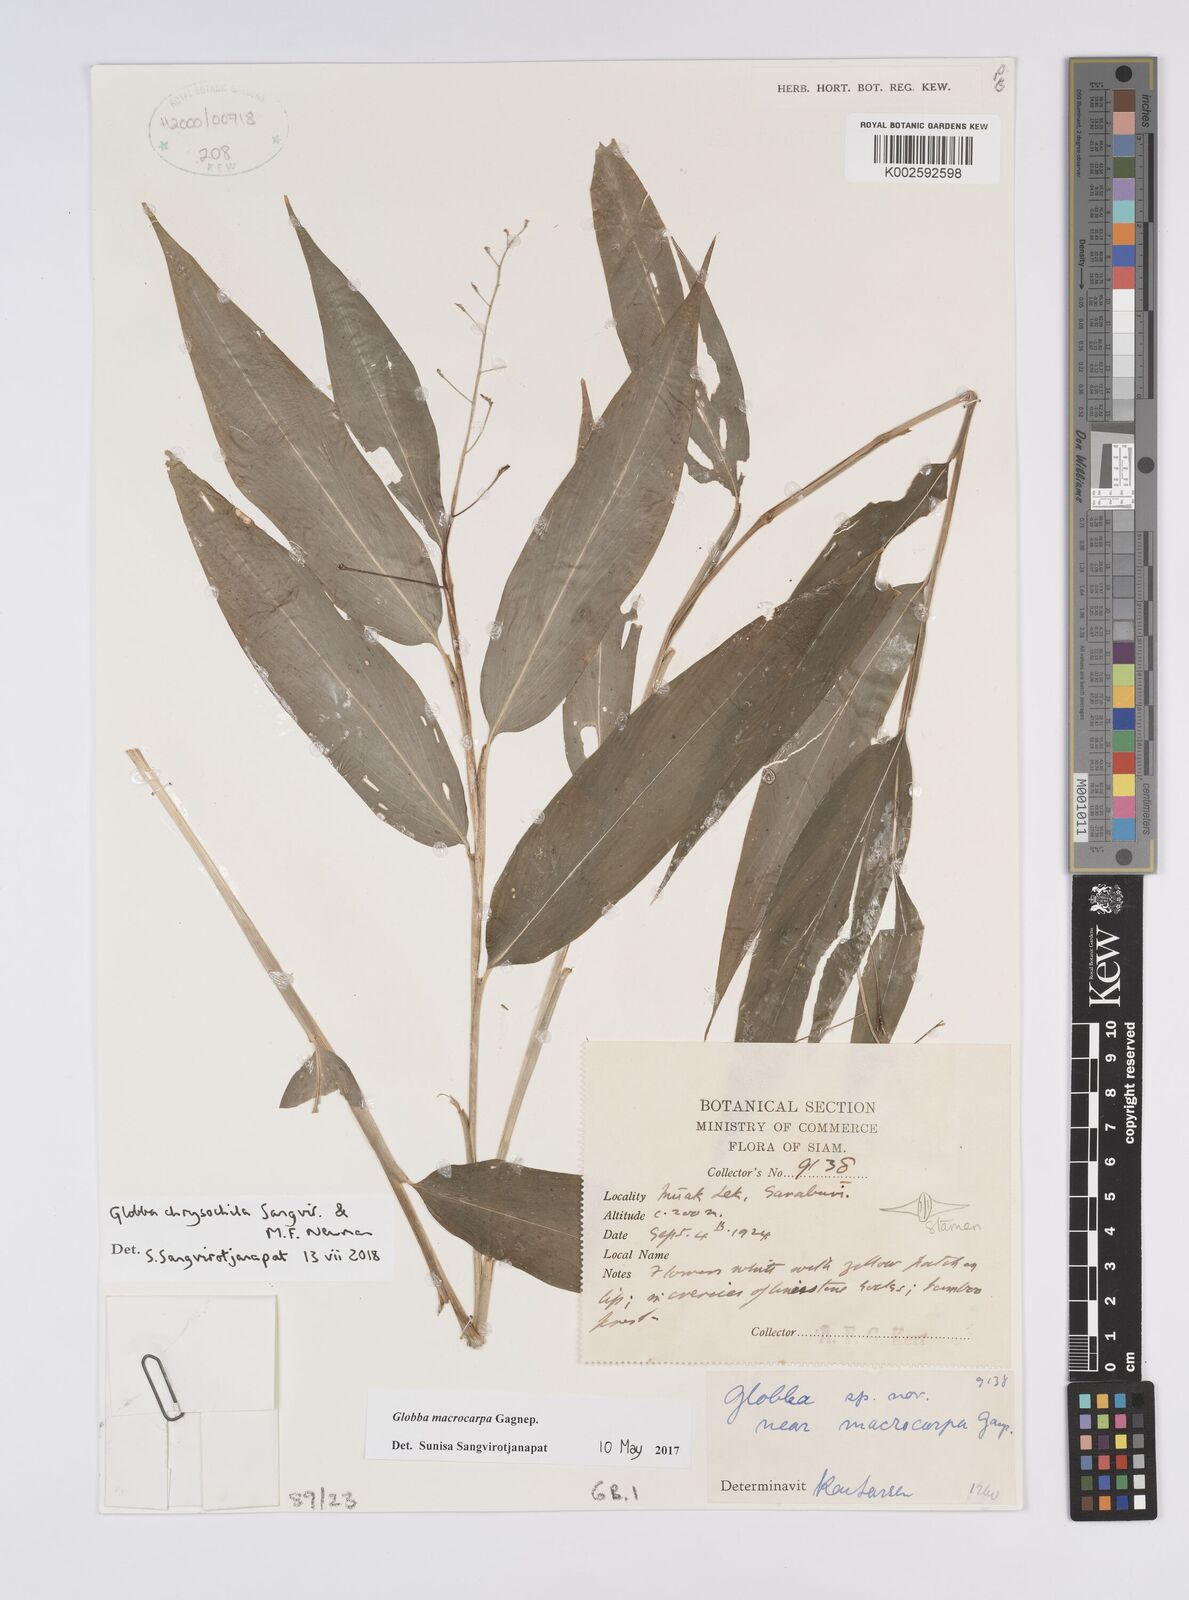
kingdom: Plantae
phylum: Tracheophyta
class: Liliopsida
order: Zingiberales
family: Zingiberaceae
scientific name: Zingiberaceae
